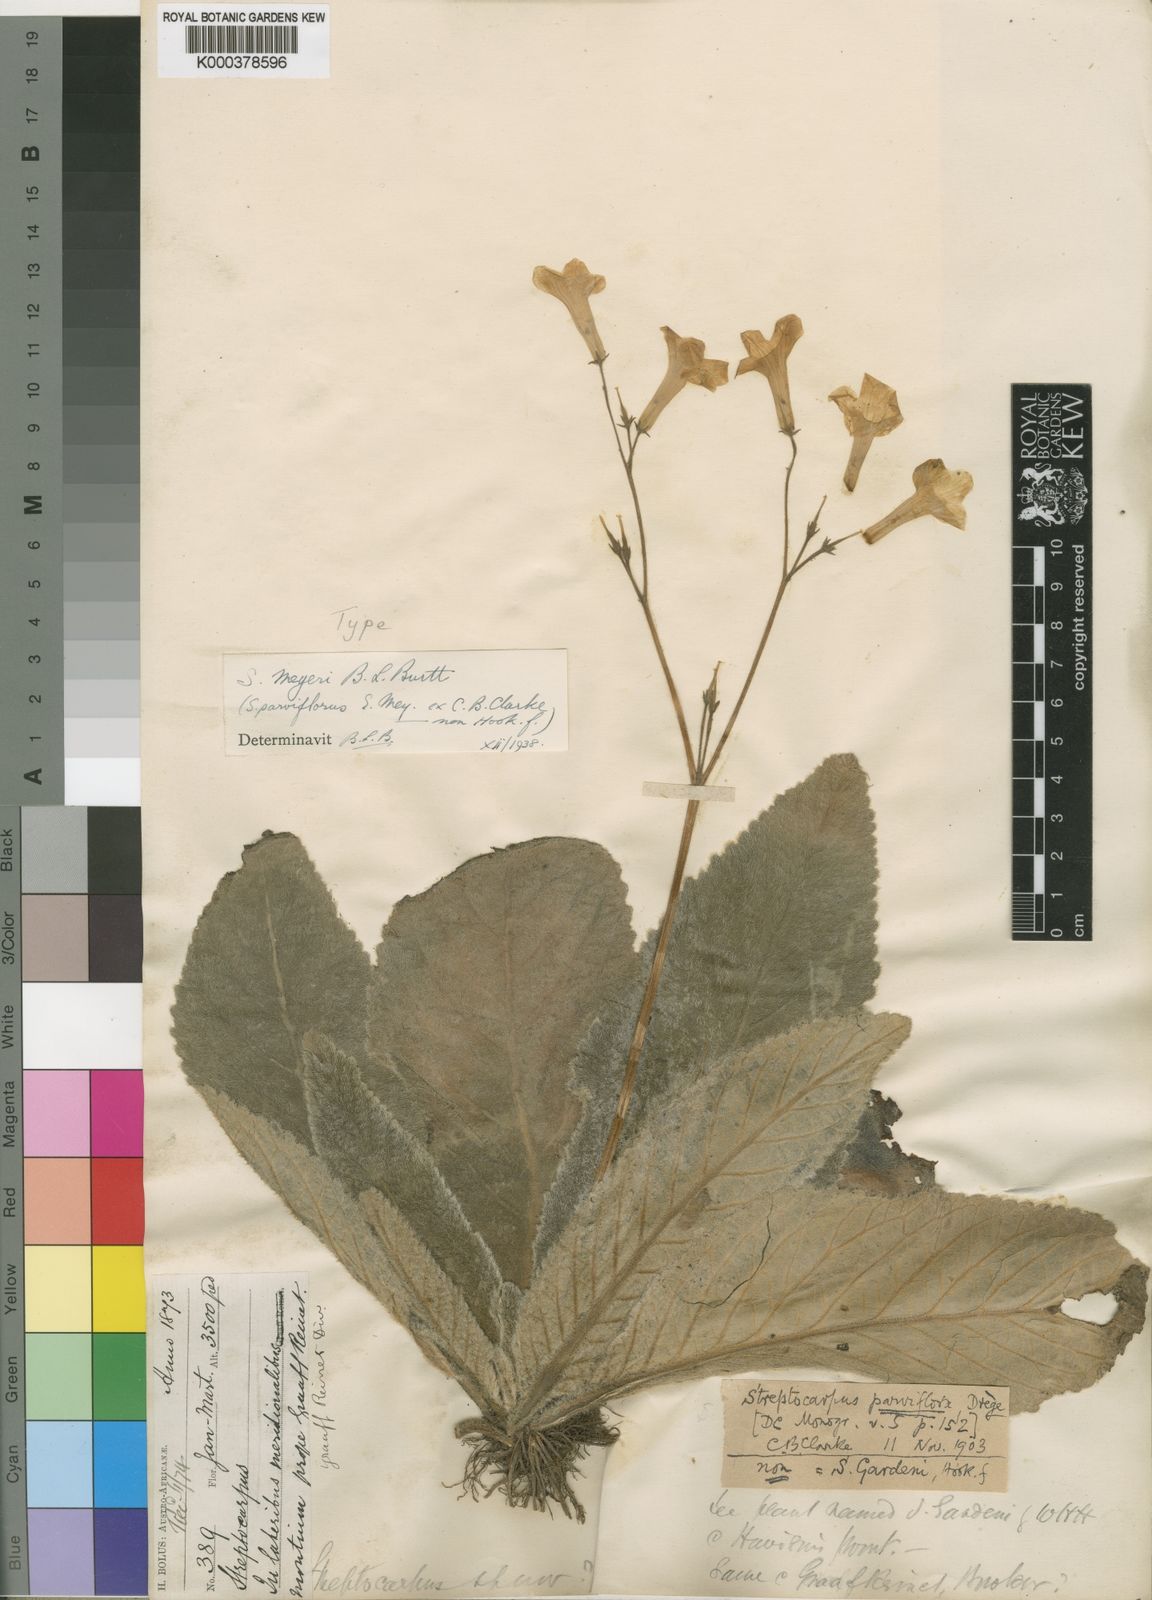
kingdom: Plantae
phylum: Tracheophyta
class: Magnoliopsida
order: Lamiales
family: Gesneriaceae
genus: Streptocarpus
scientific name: Streptocarpus meyeri
